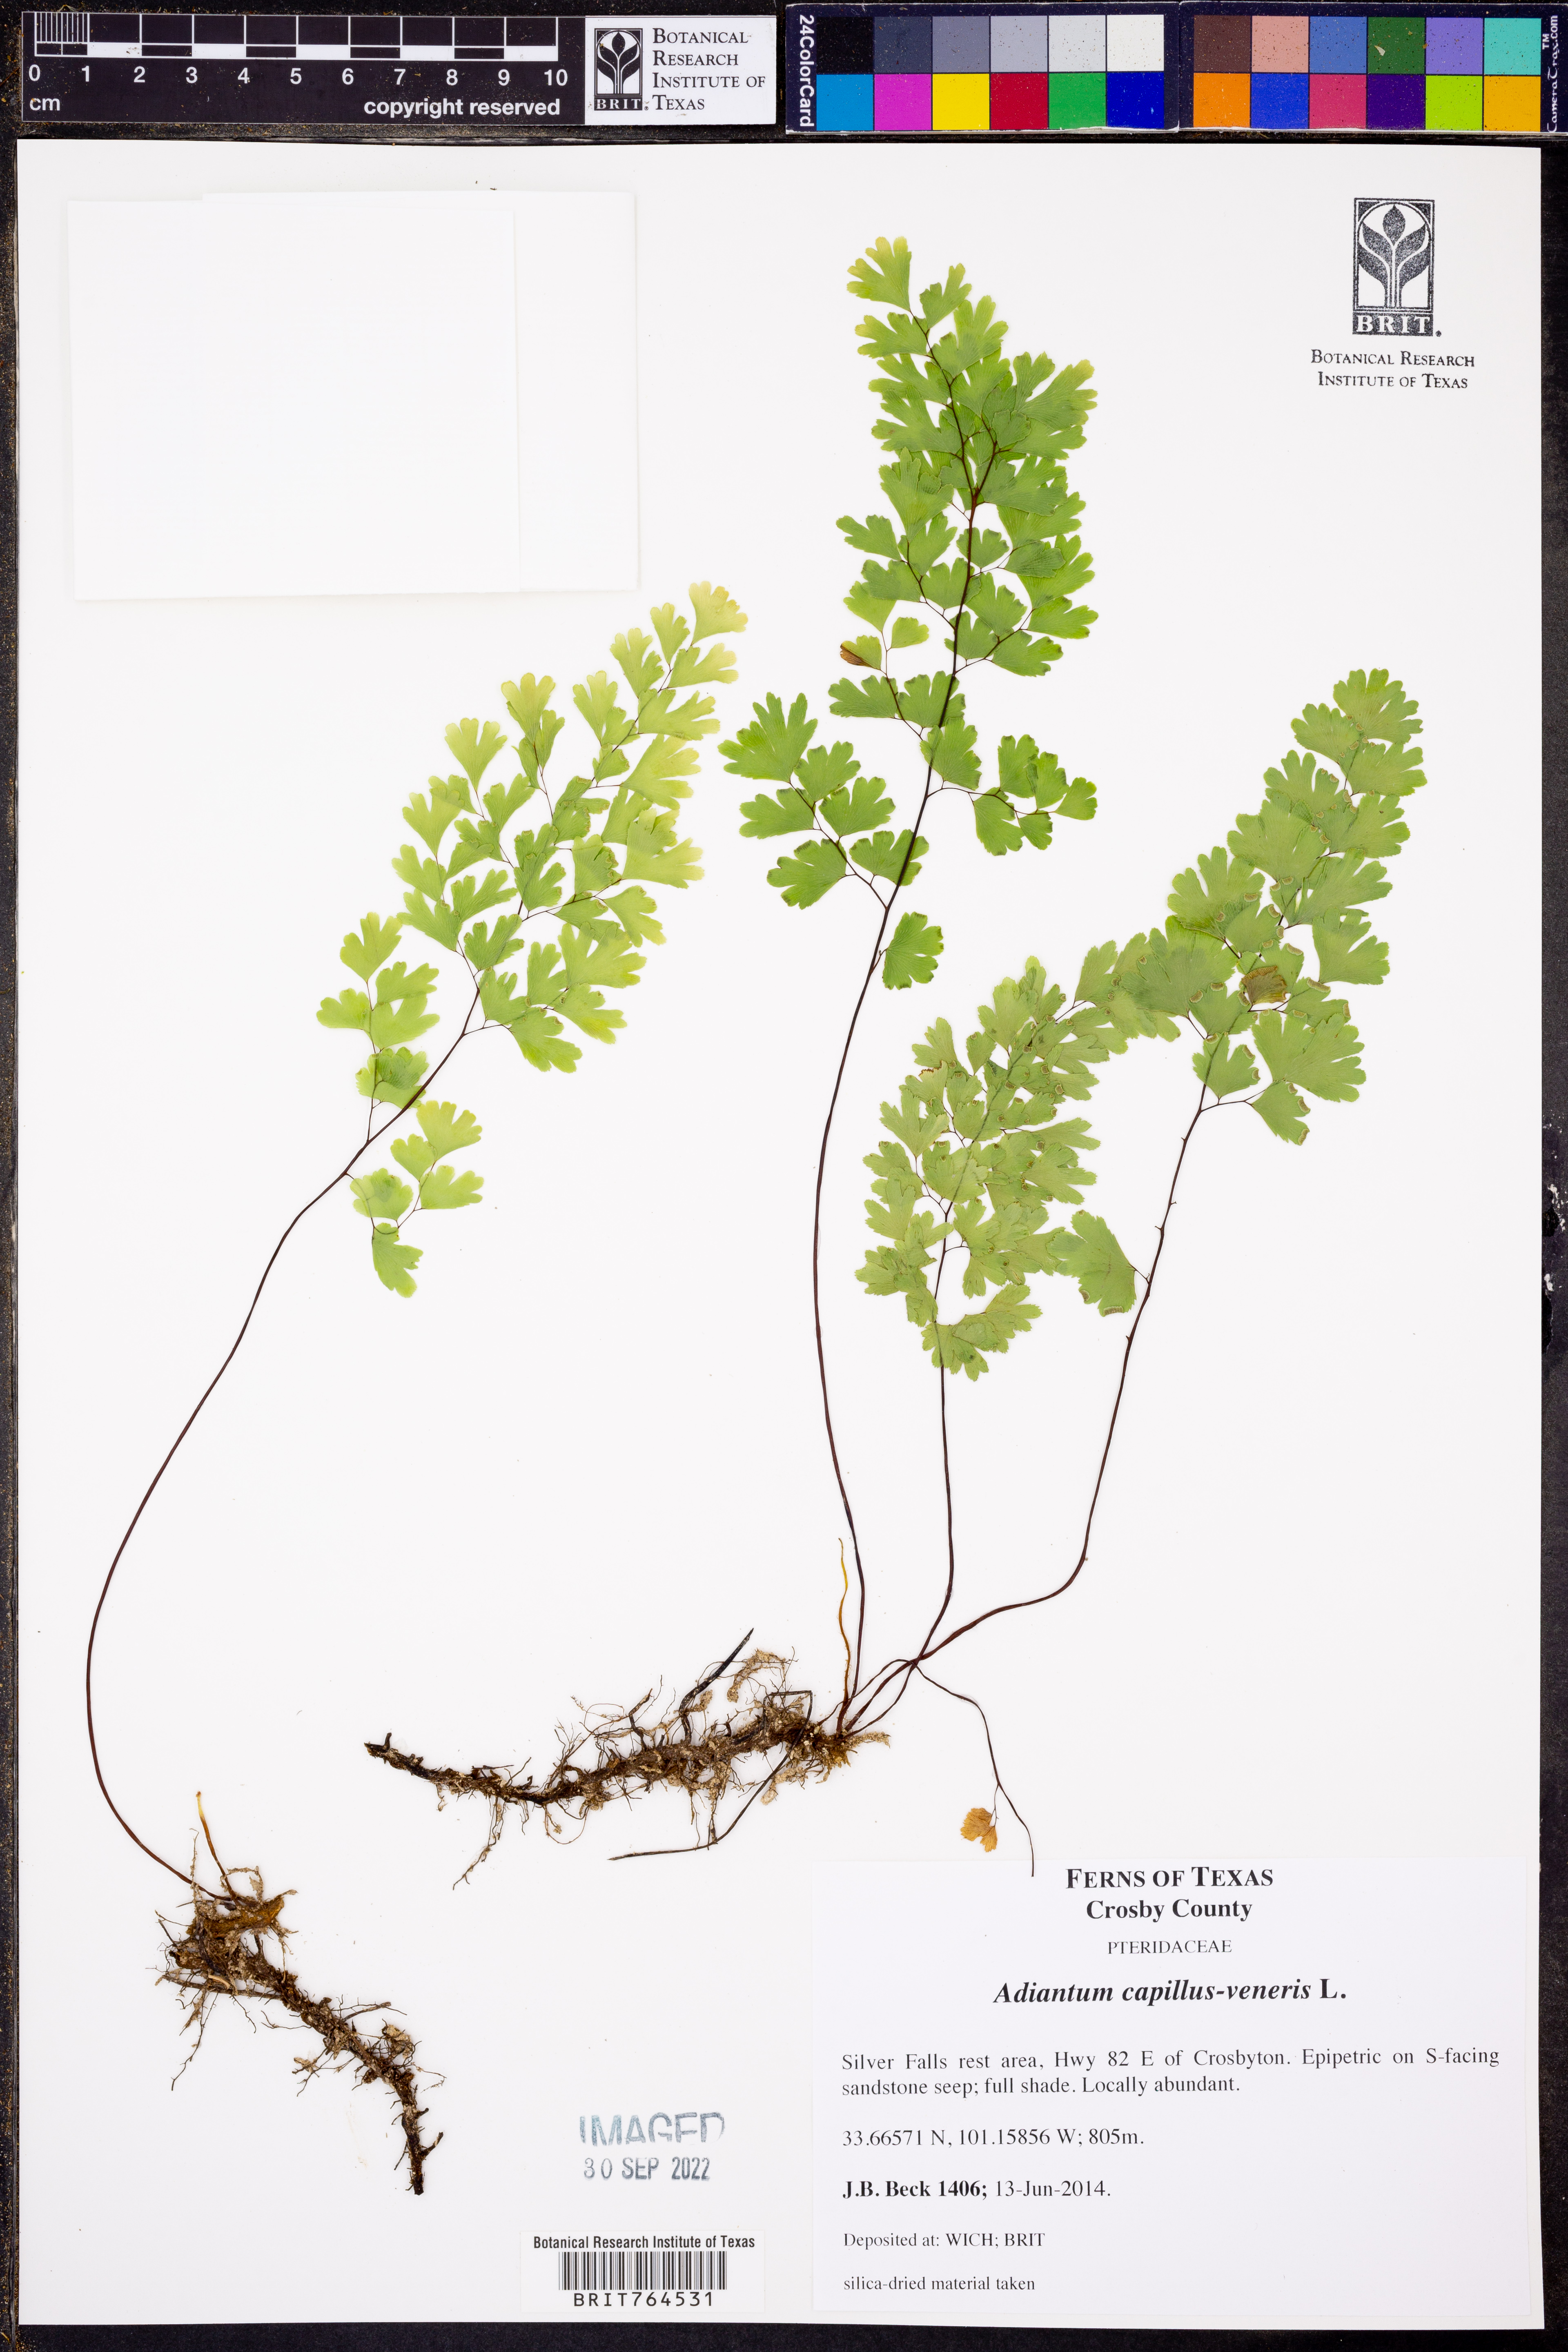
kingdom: Plantae
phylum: Tracheophyta
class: Polypodiopsida
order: Polypodiales
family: Pteridaceae
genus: Adiantum
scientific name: Adiantum capillus-veneris
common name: Maidenhair fern
